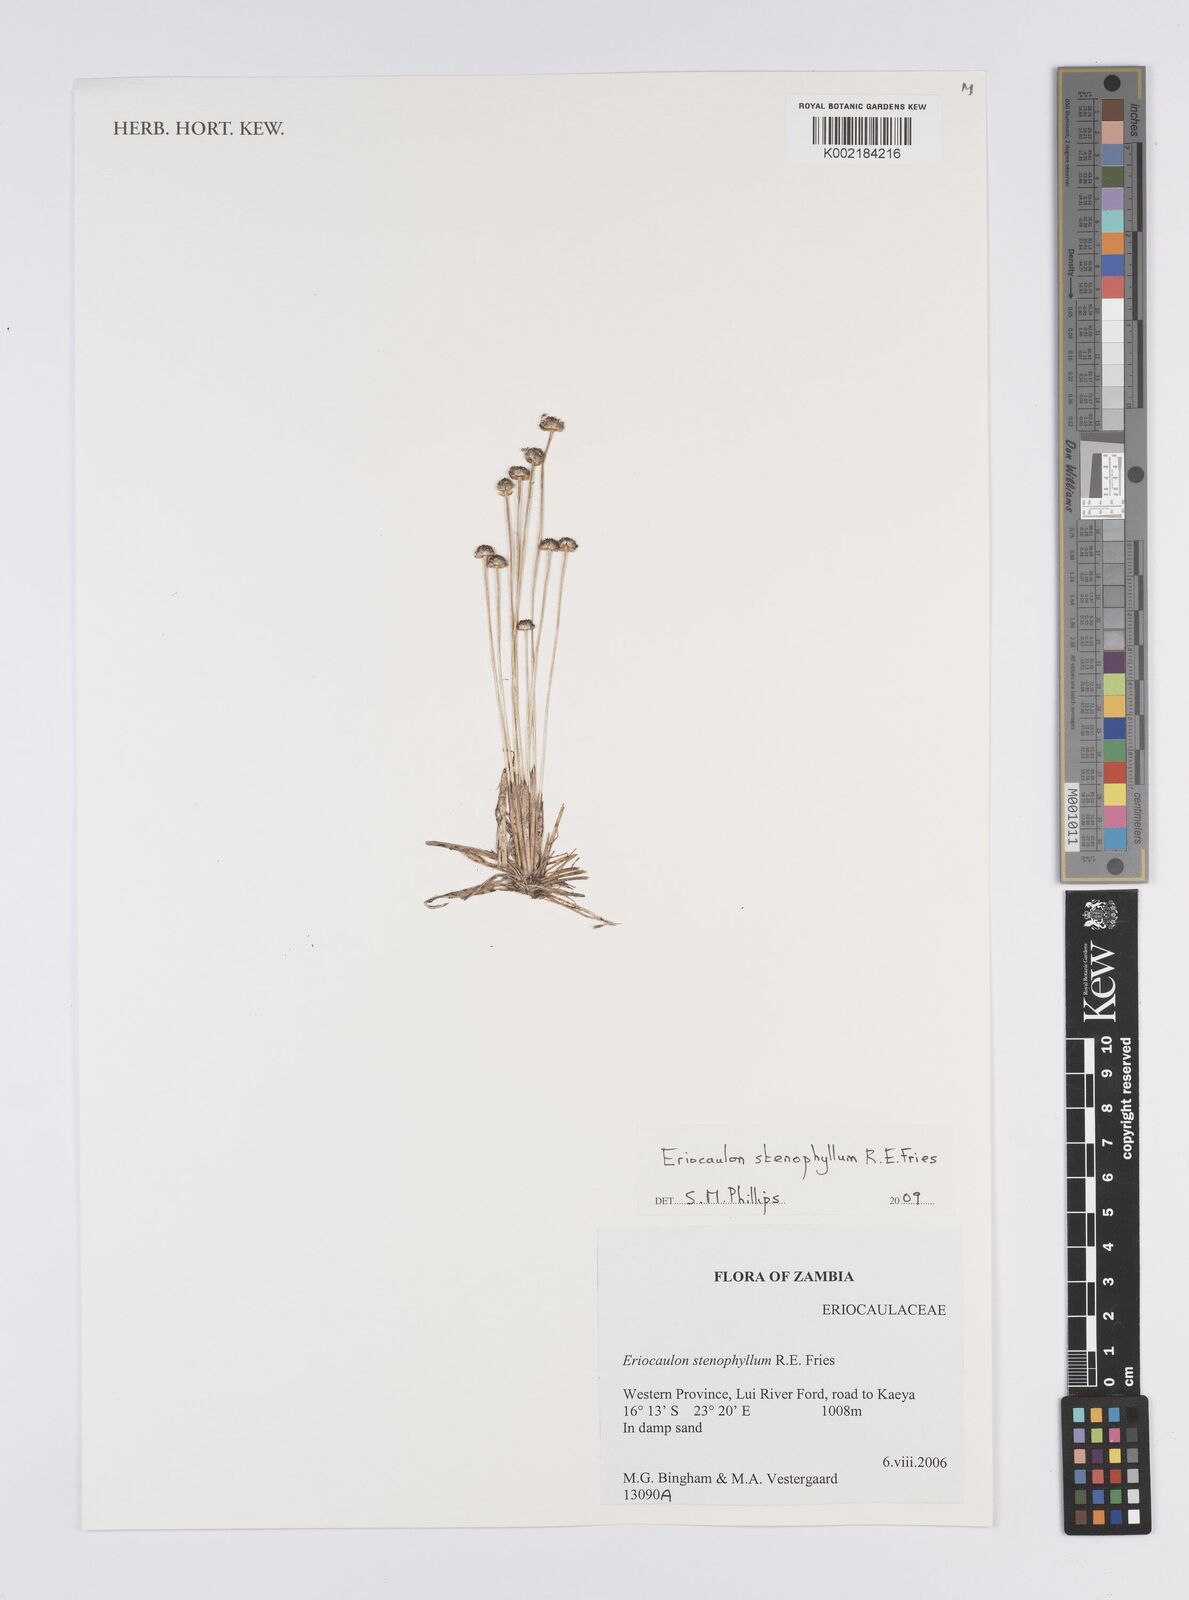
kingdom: Plantae
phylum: Tracheophyta
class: Liliopsida
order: Poales
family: Eriocaulaceae
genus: Eriocaulon
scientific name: Eriocaulon stenophyllum
